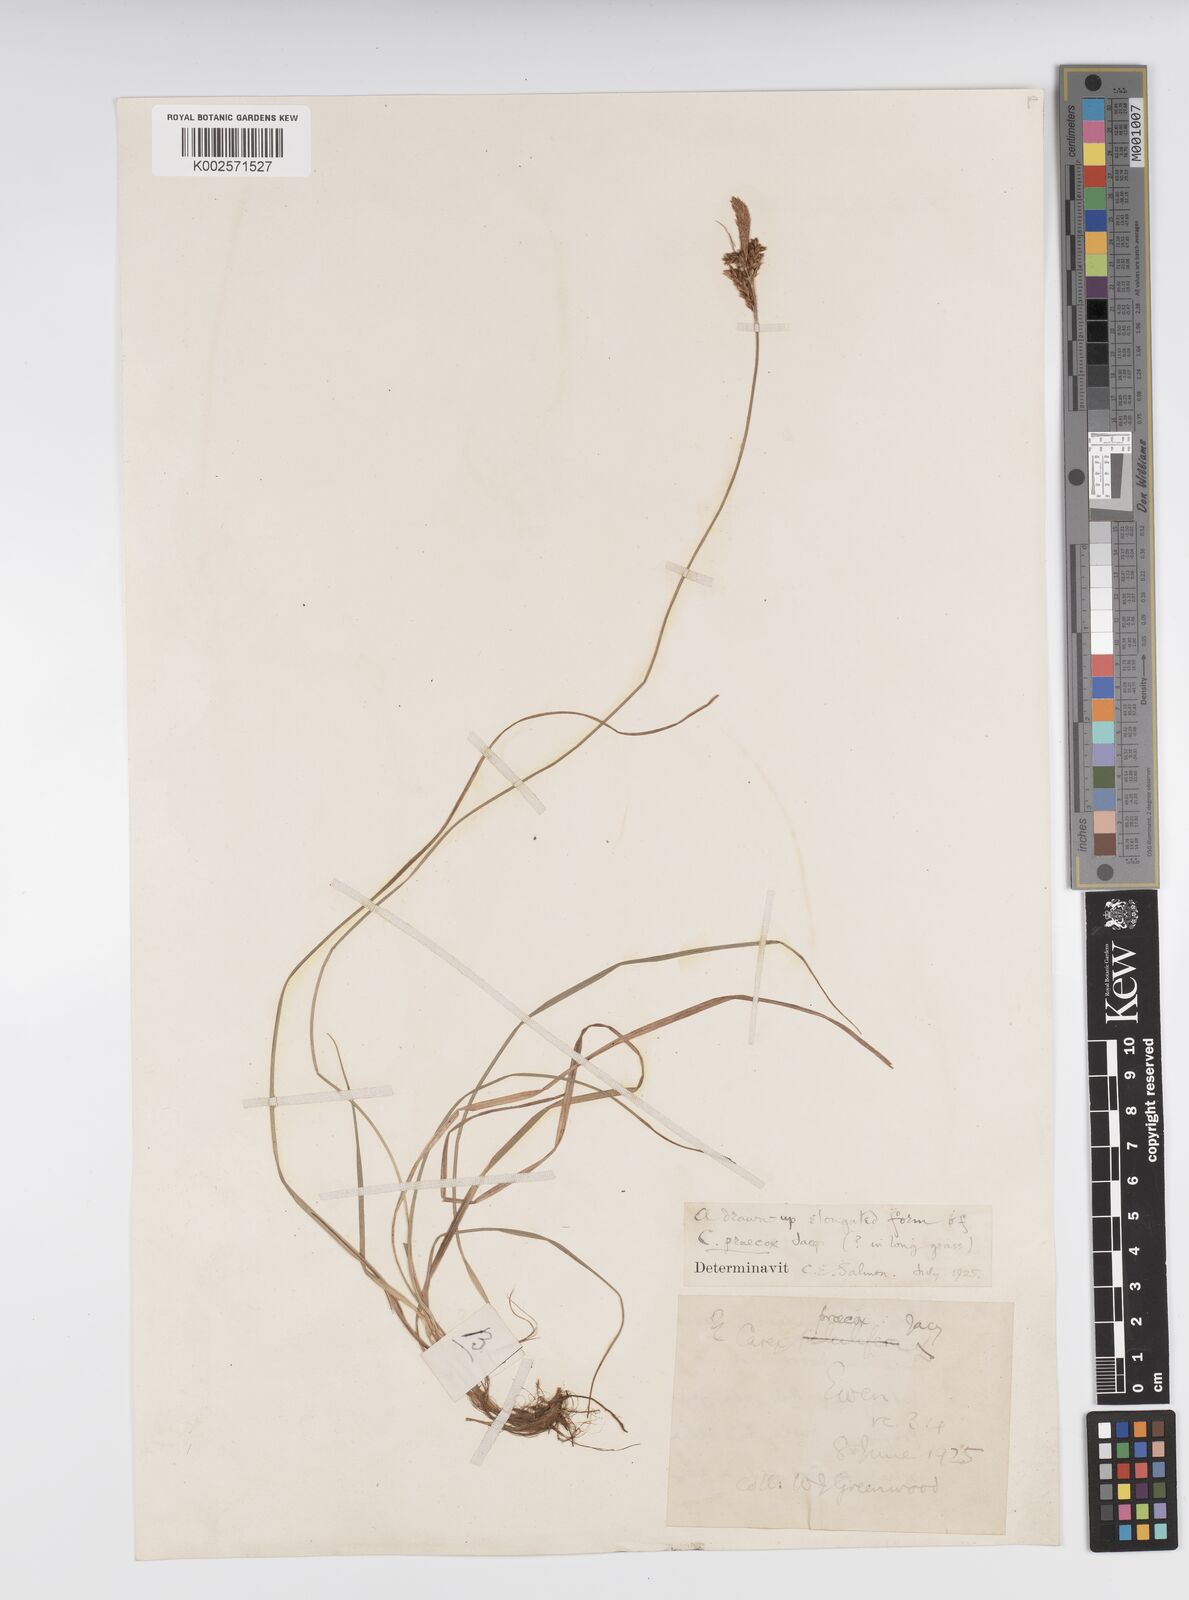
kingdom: Plantae
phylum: Tracheophyta
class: Liliopsida
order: Poales
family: Cyperaceae
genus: Carex
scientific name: Carex caryophyllea
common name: Spring sedge
